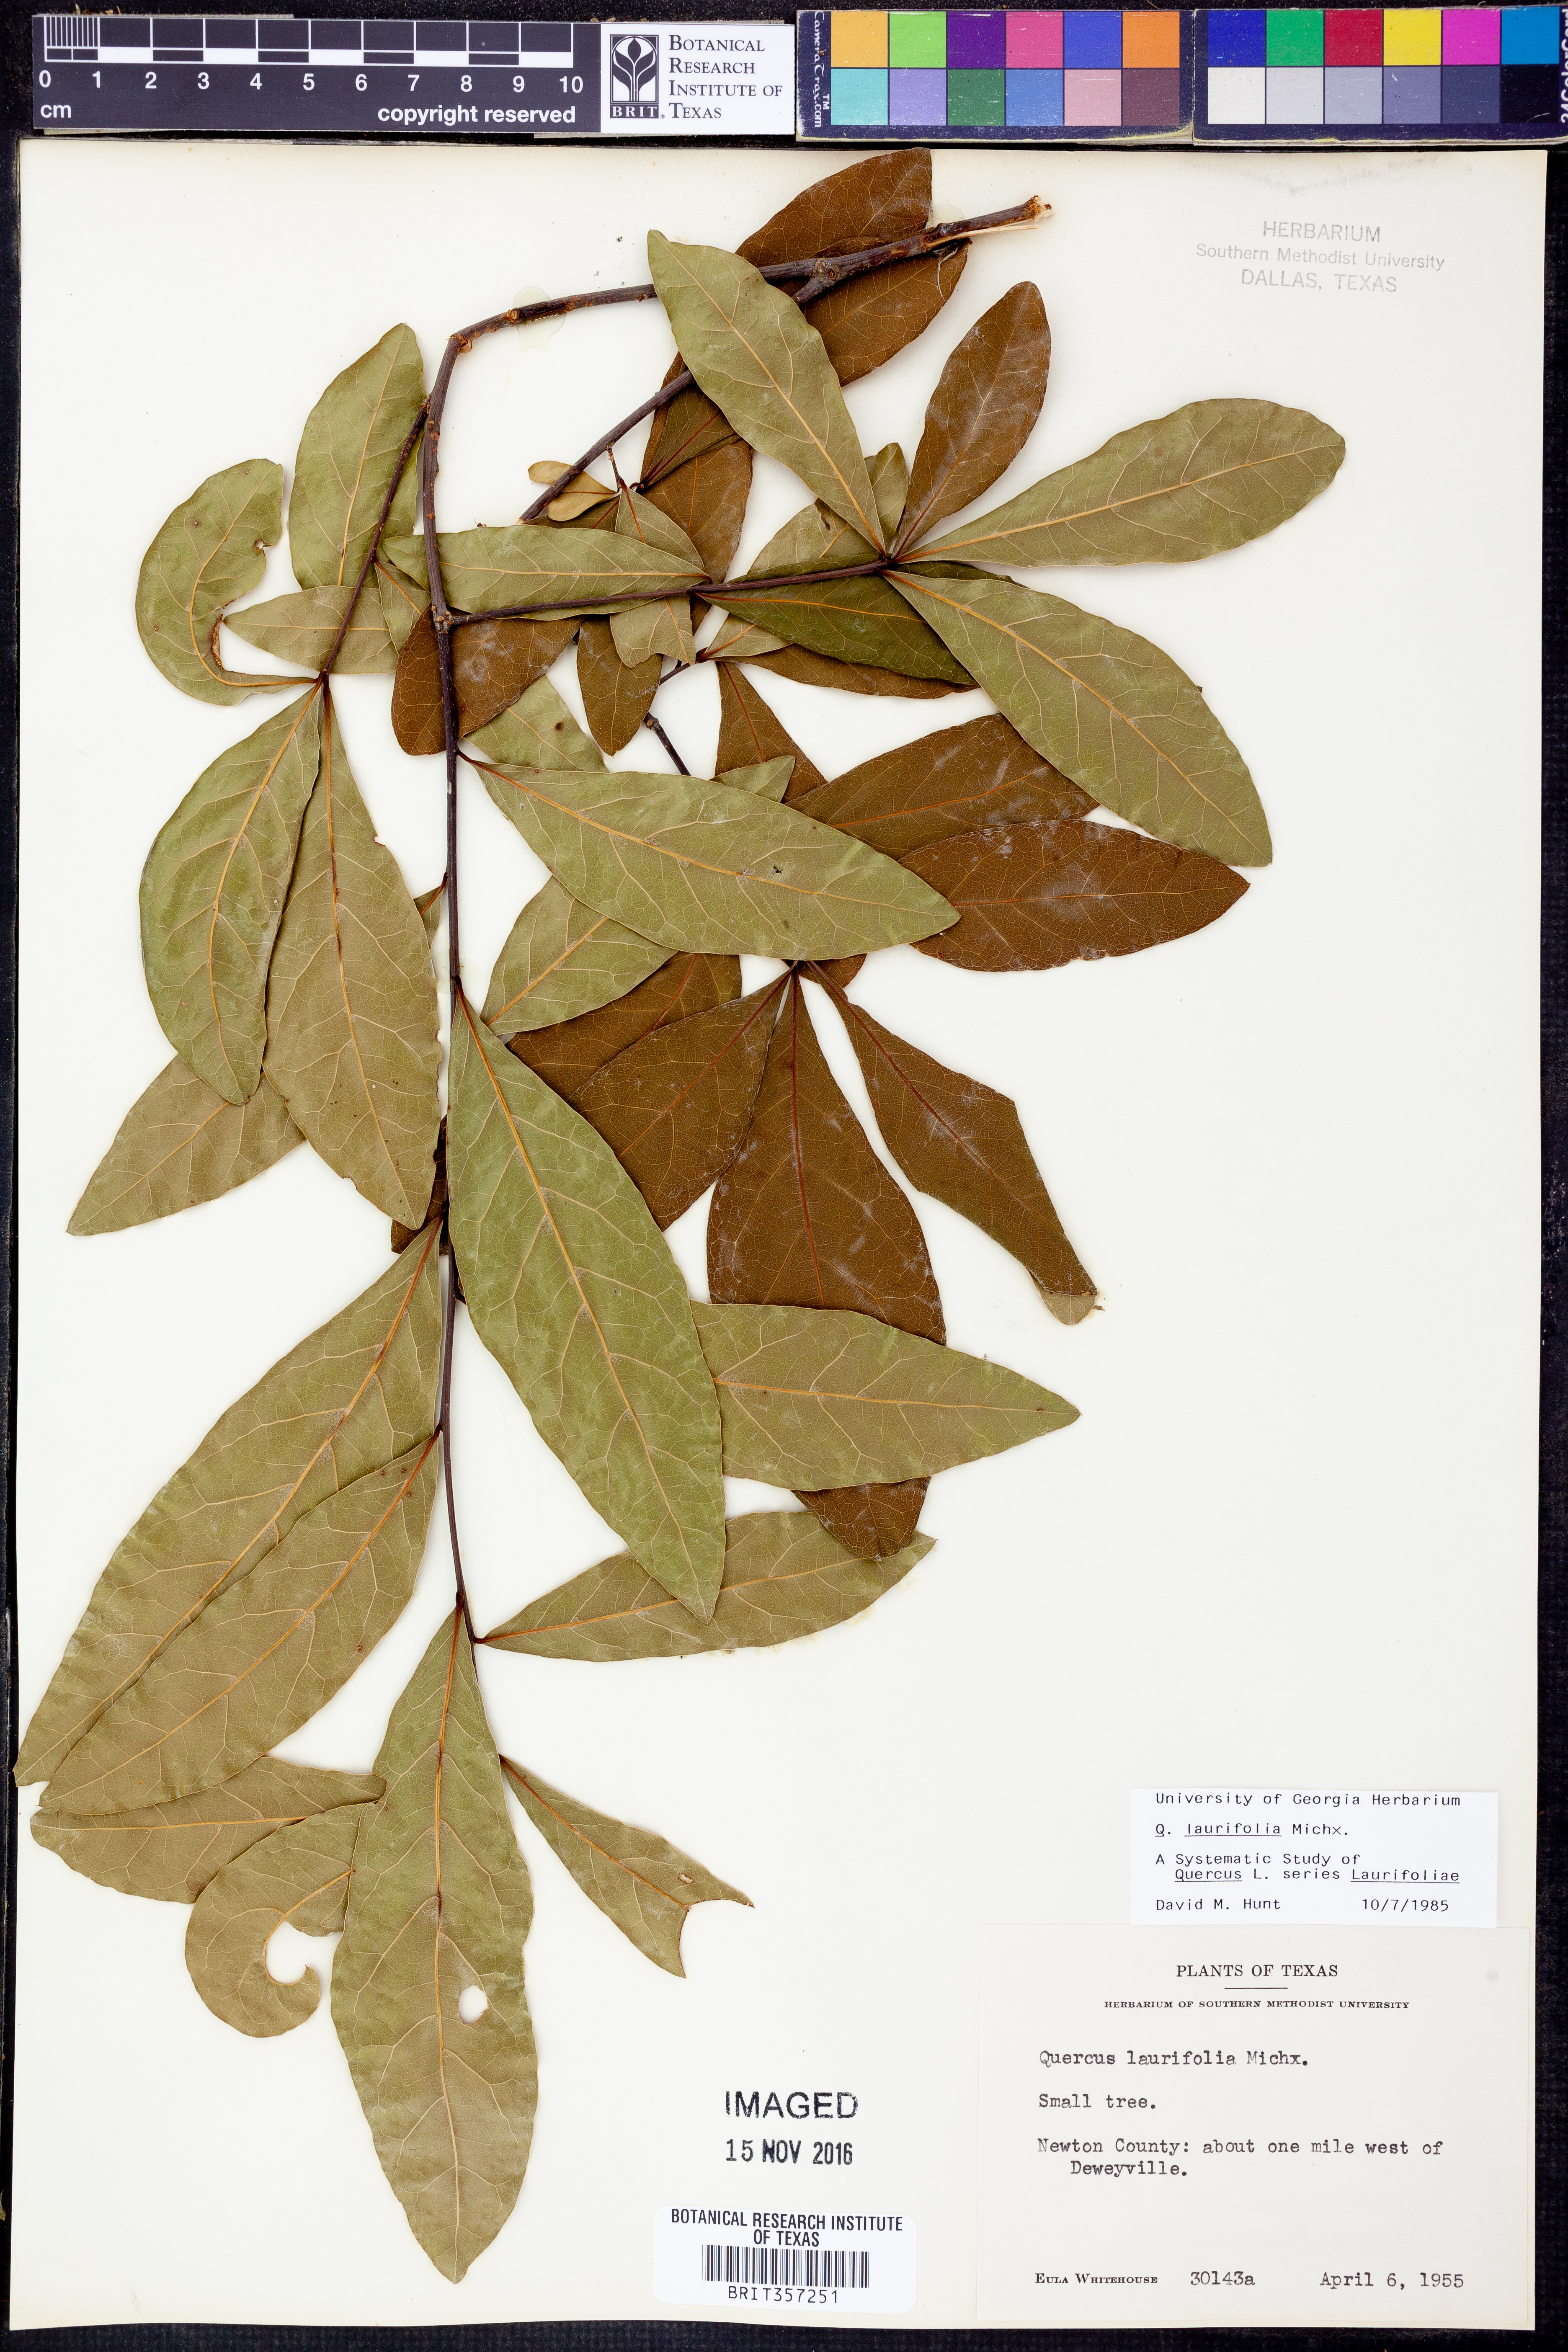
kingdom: Plantae
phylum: Tracheophyta
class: Magnoliopsida
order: Fagales
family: Fagaceae
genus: Quercus
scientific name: Quercus laurifolia
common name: Swamp laurel oak
